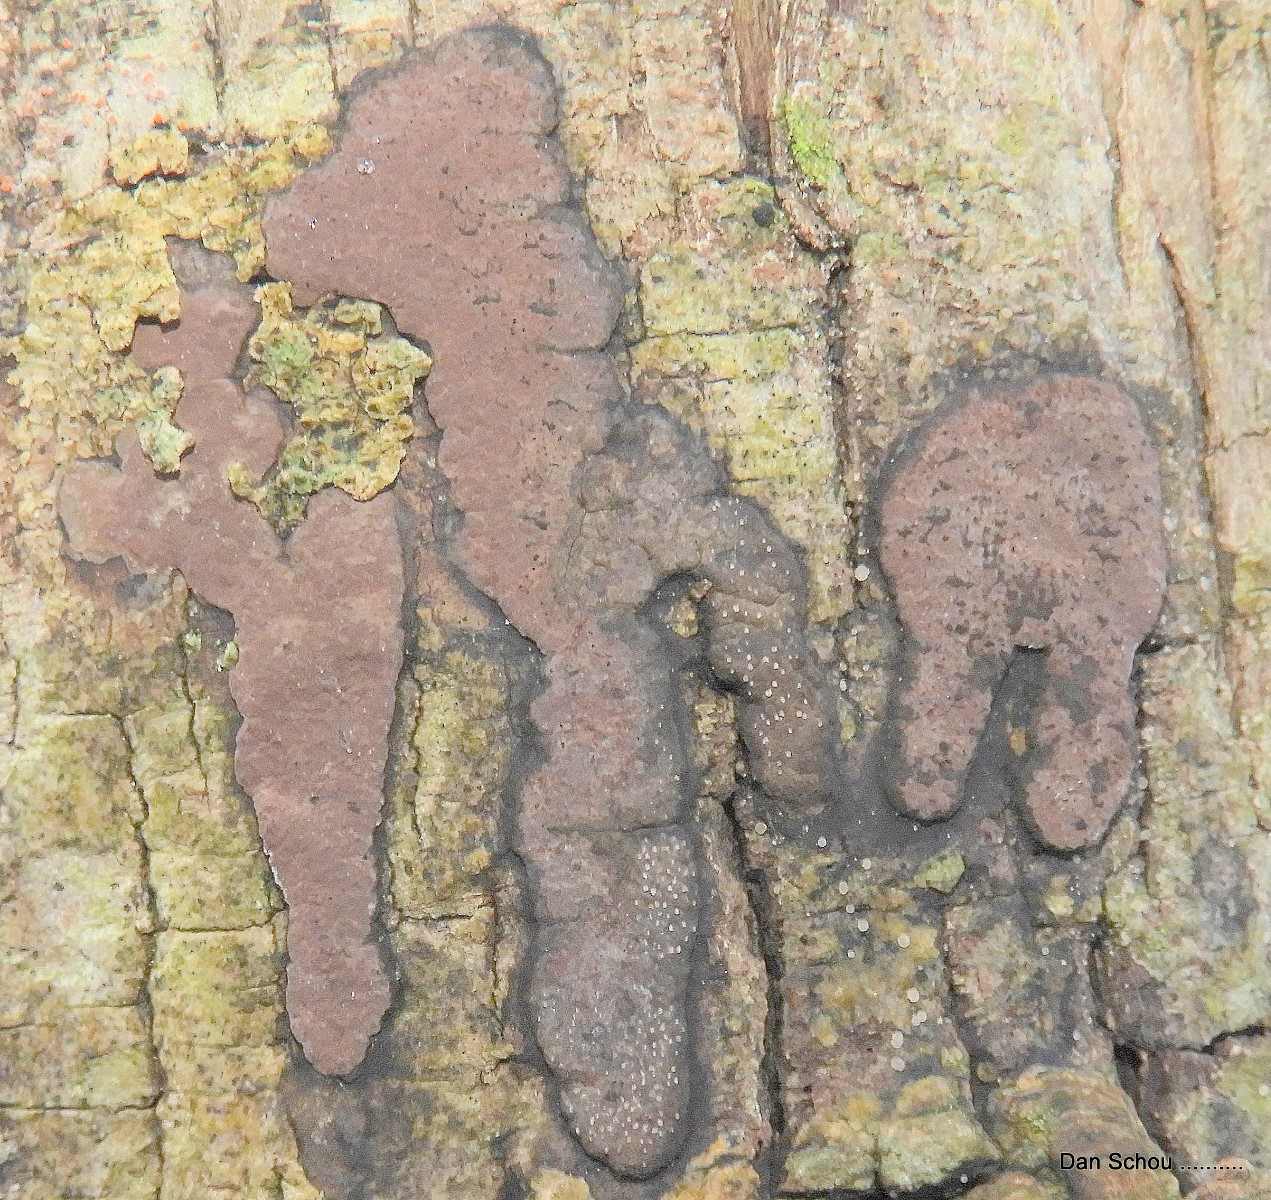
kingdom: Fungi
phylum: Ascomycota
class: Sordariomycetes
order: Xylariales
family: Hypoxylaceae
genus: Hypoxylon
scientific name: Hypoxylon petriniae
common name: nedsænket kulbær
